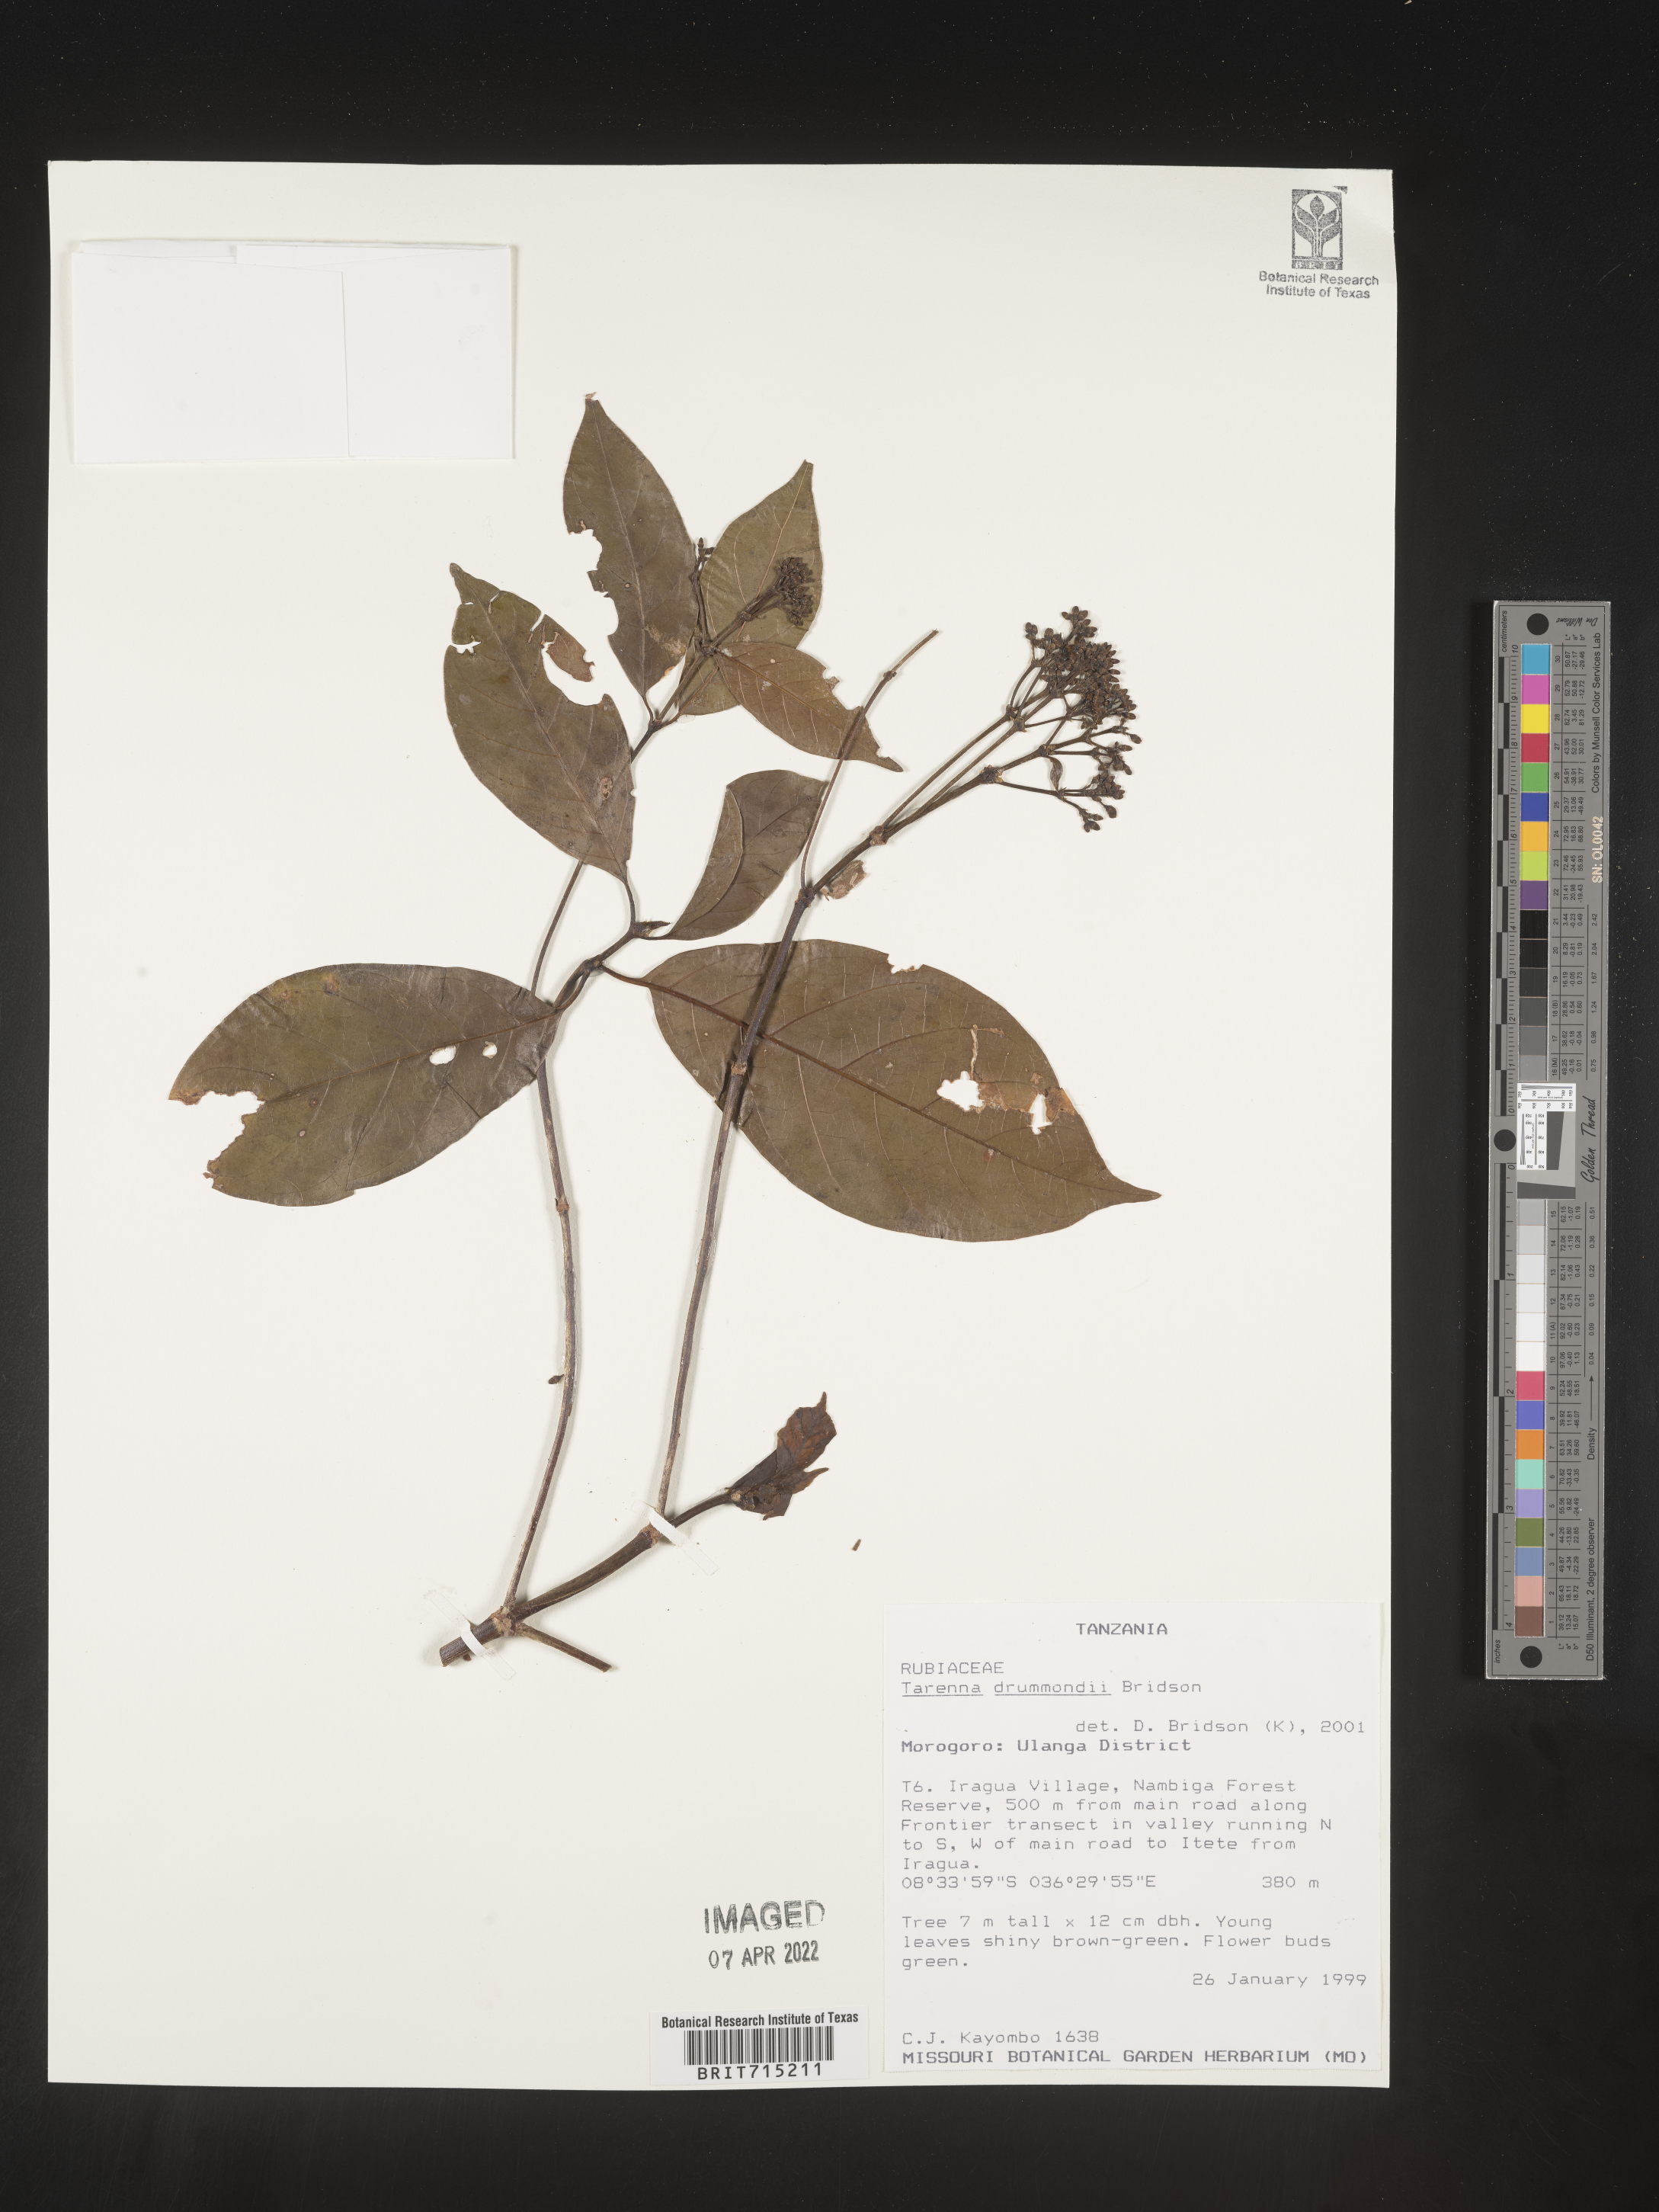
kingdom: Plantae
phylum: Tracheophyta
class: Magnoliopsida
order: Gentianales
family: Rubiaceae
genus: Tarenna
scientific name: Tarenna
